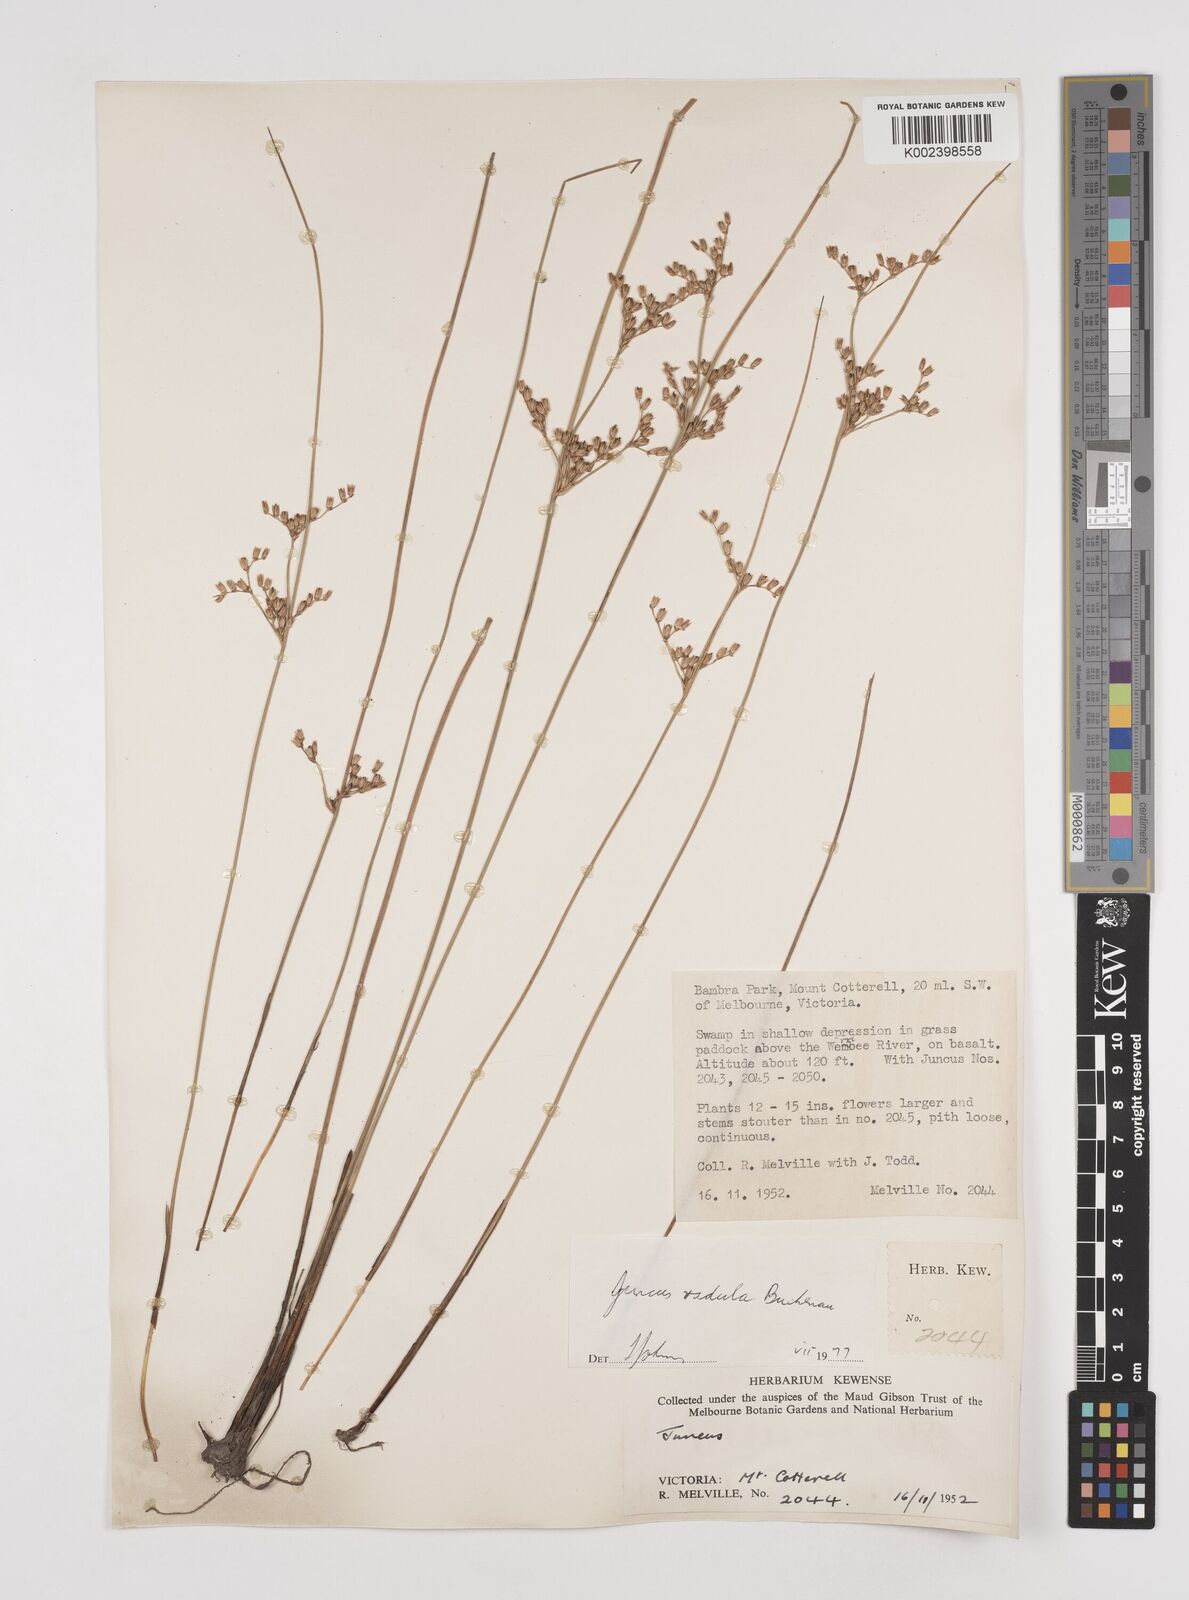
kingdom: Plantae
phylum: Tracheophyta
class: Liliopsida
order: Poales
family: Juncaceae
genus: Juncus
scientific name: Juncus radula
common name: Hoary rush
